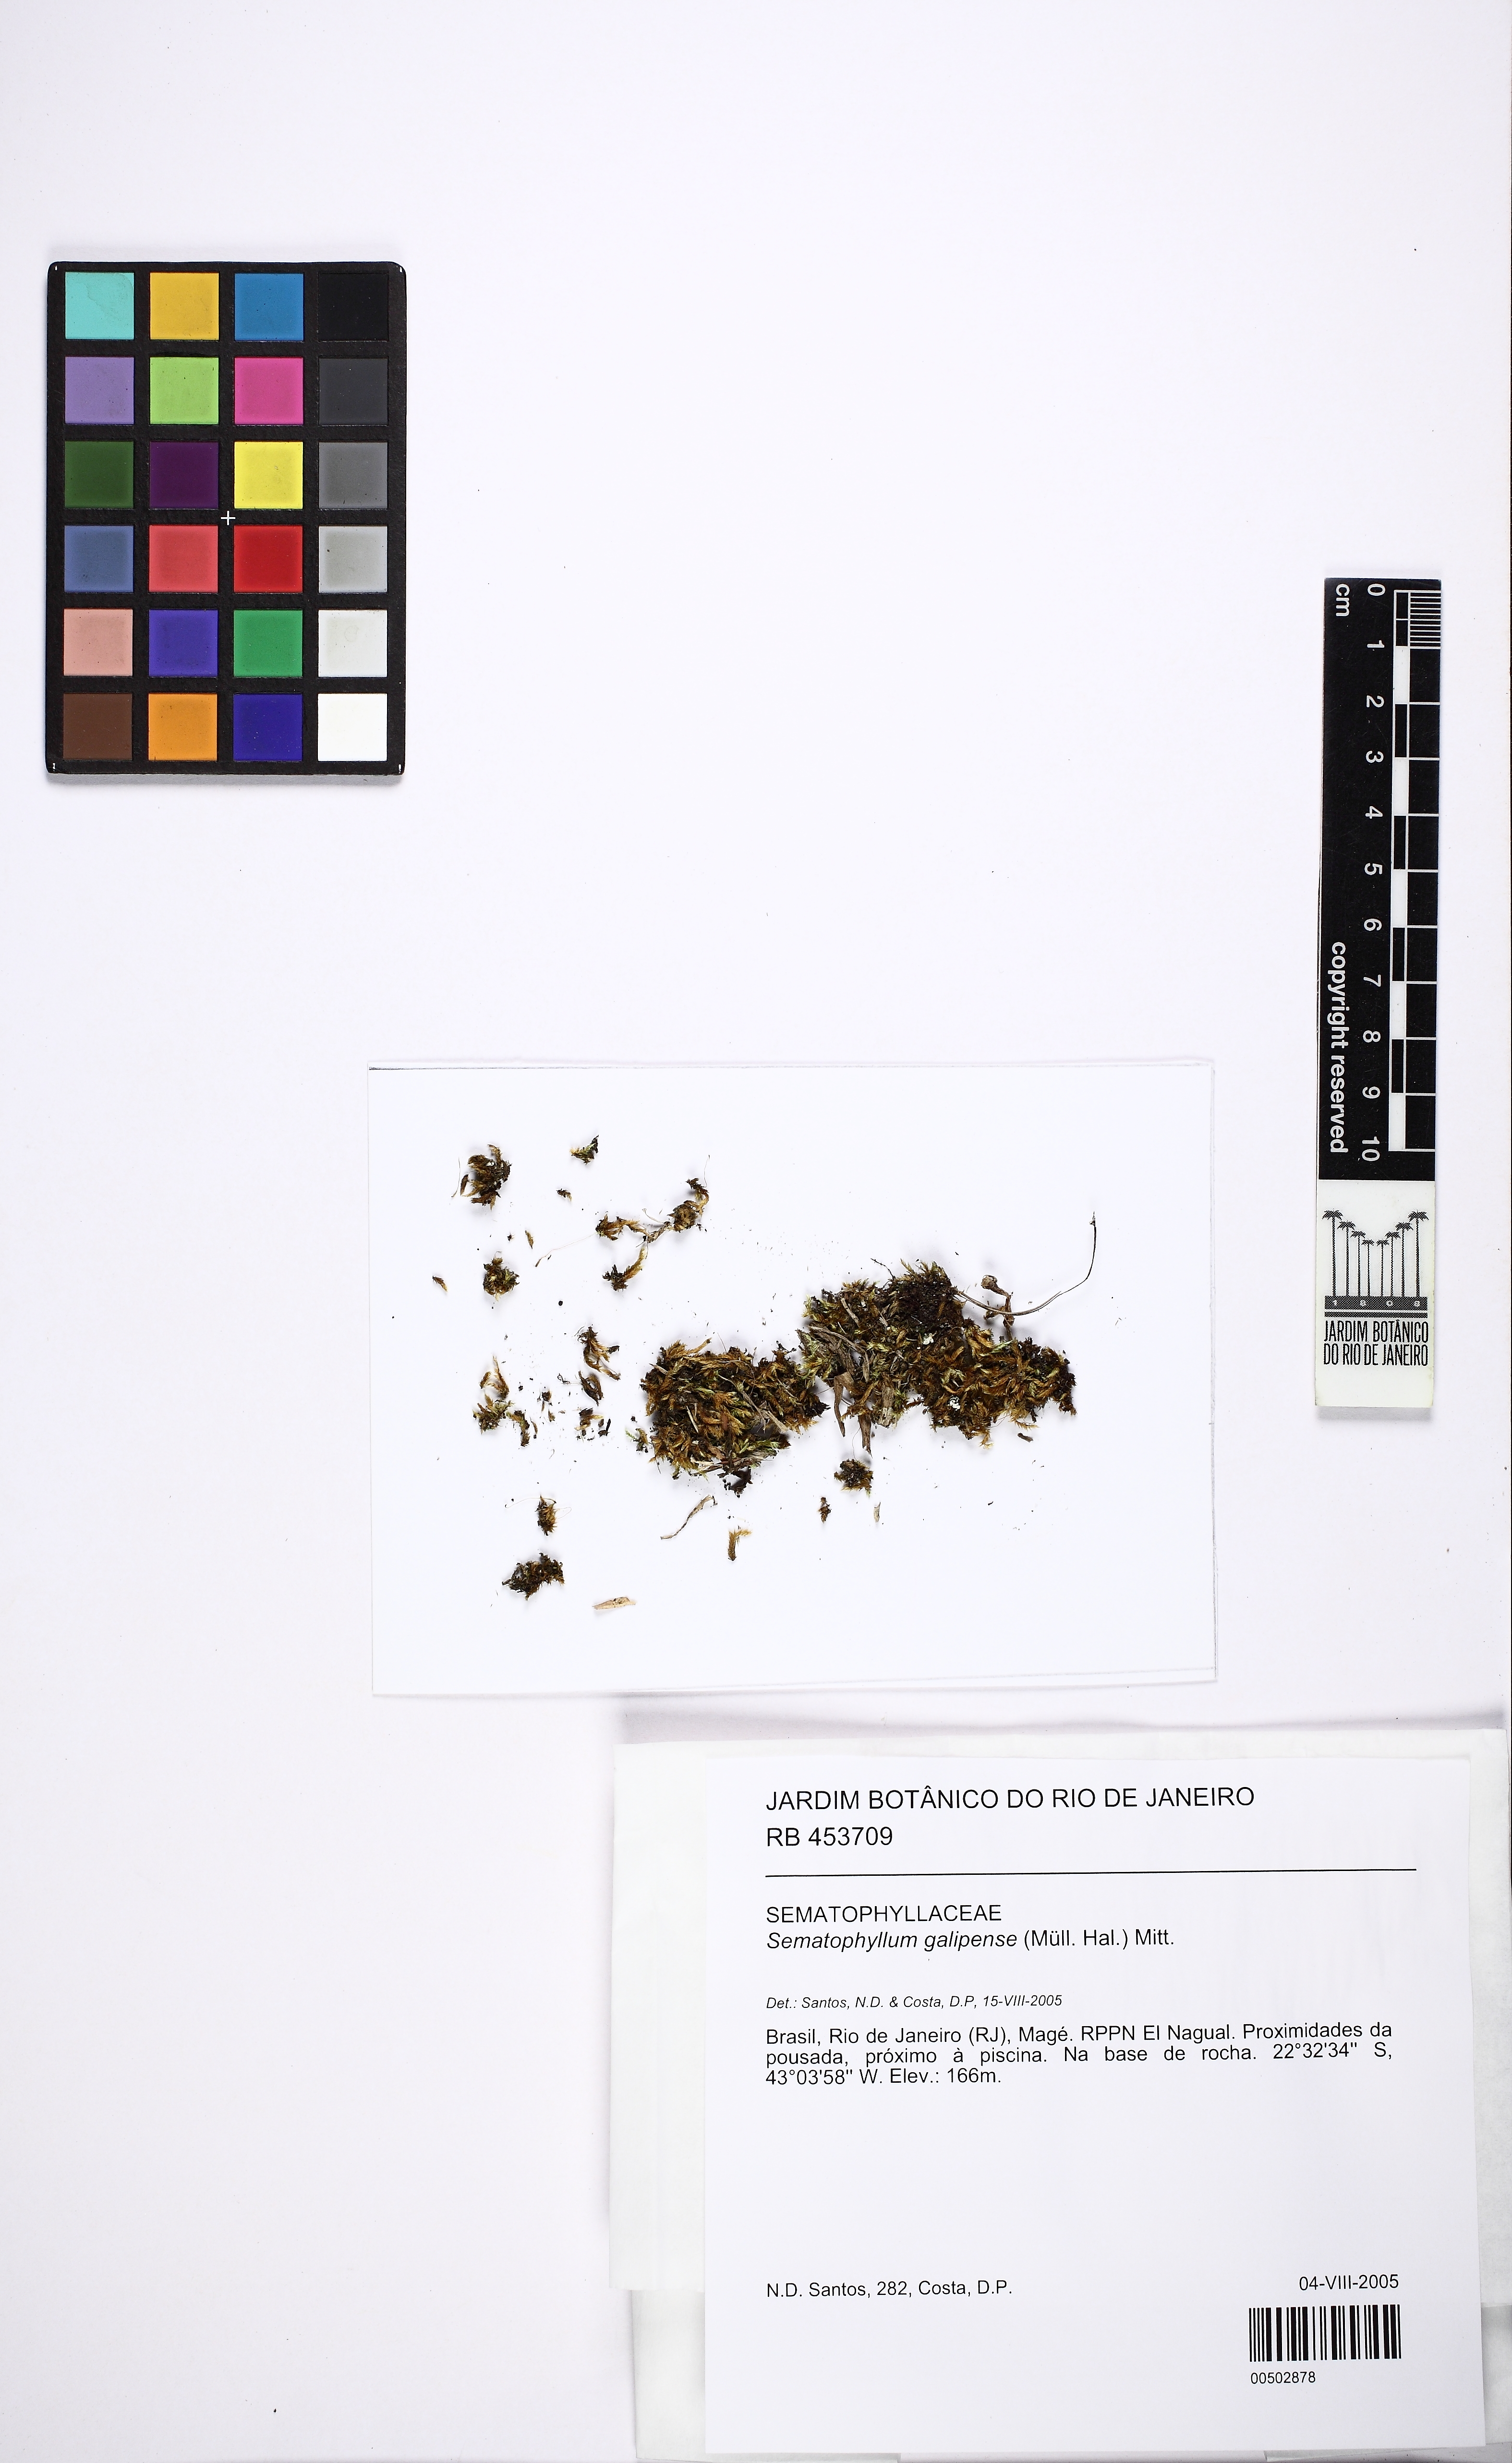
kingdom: Plantae
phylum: Bryophyta
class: Bryopsida
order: Hypnales
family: Sematophyllaceae
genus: Jirivanaea
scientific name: Jirivanaea galipensis
